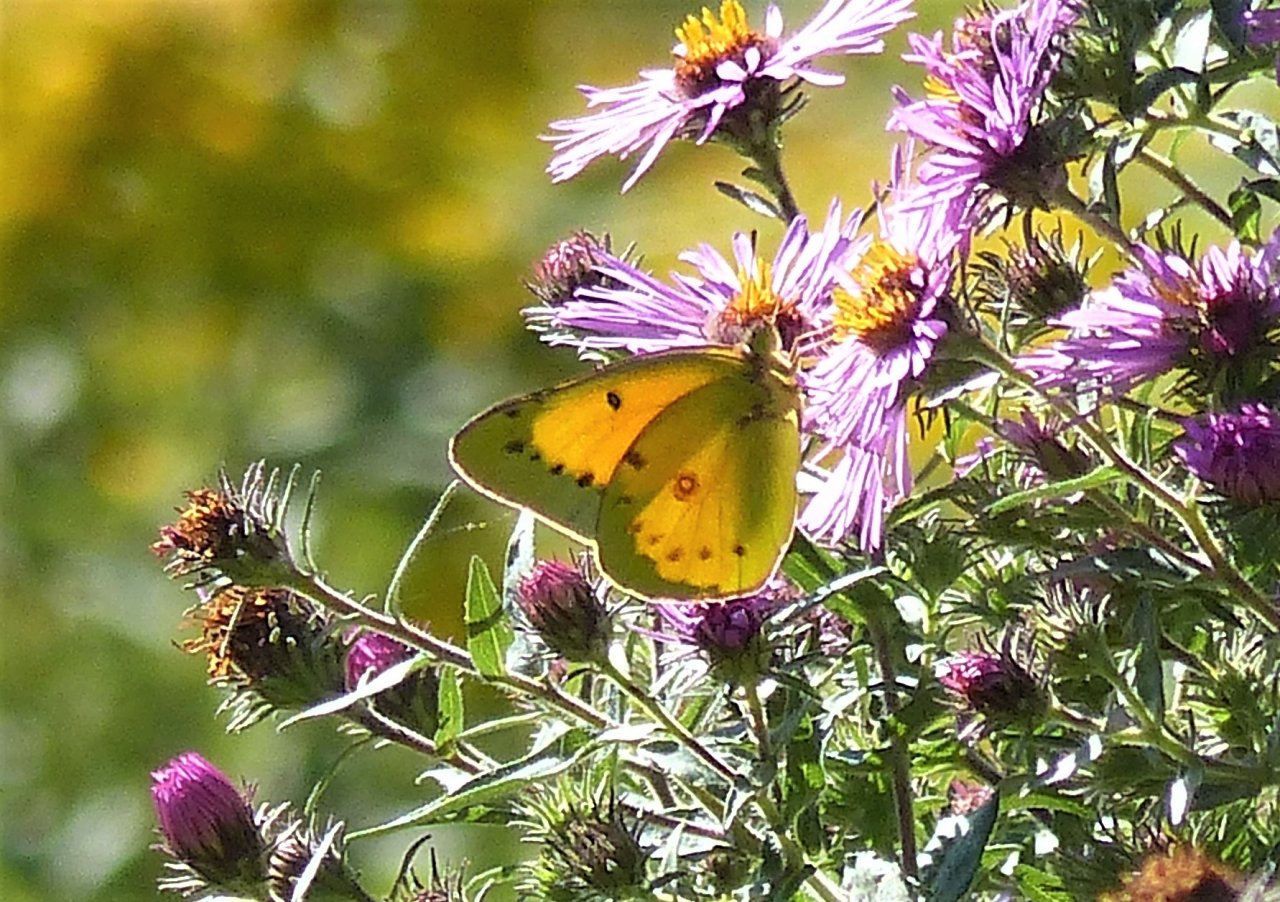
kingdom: Animalia
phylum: Arthropoda
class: Insecta
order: Lepidoptera
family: Pieridae
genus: Colias
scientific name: Colias eurytheme
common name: Orange Sulphur
